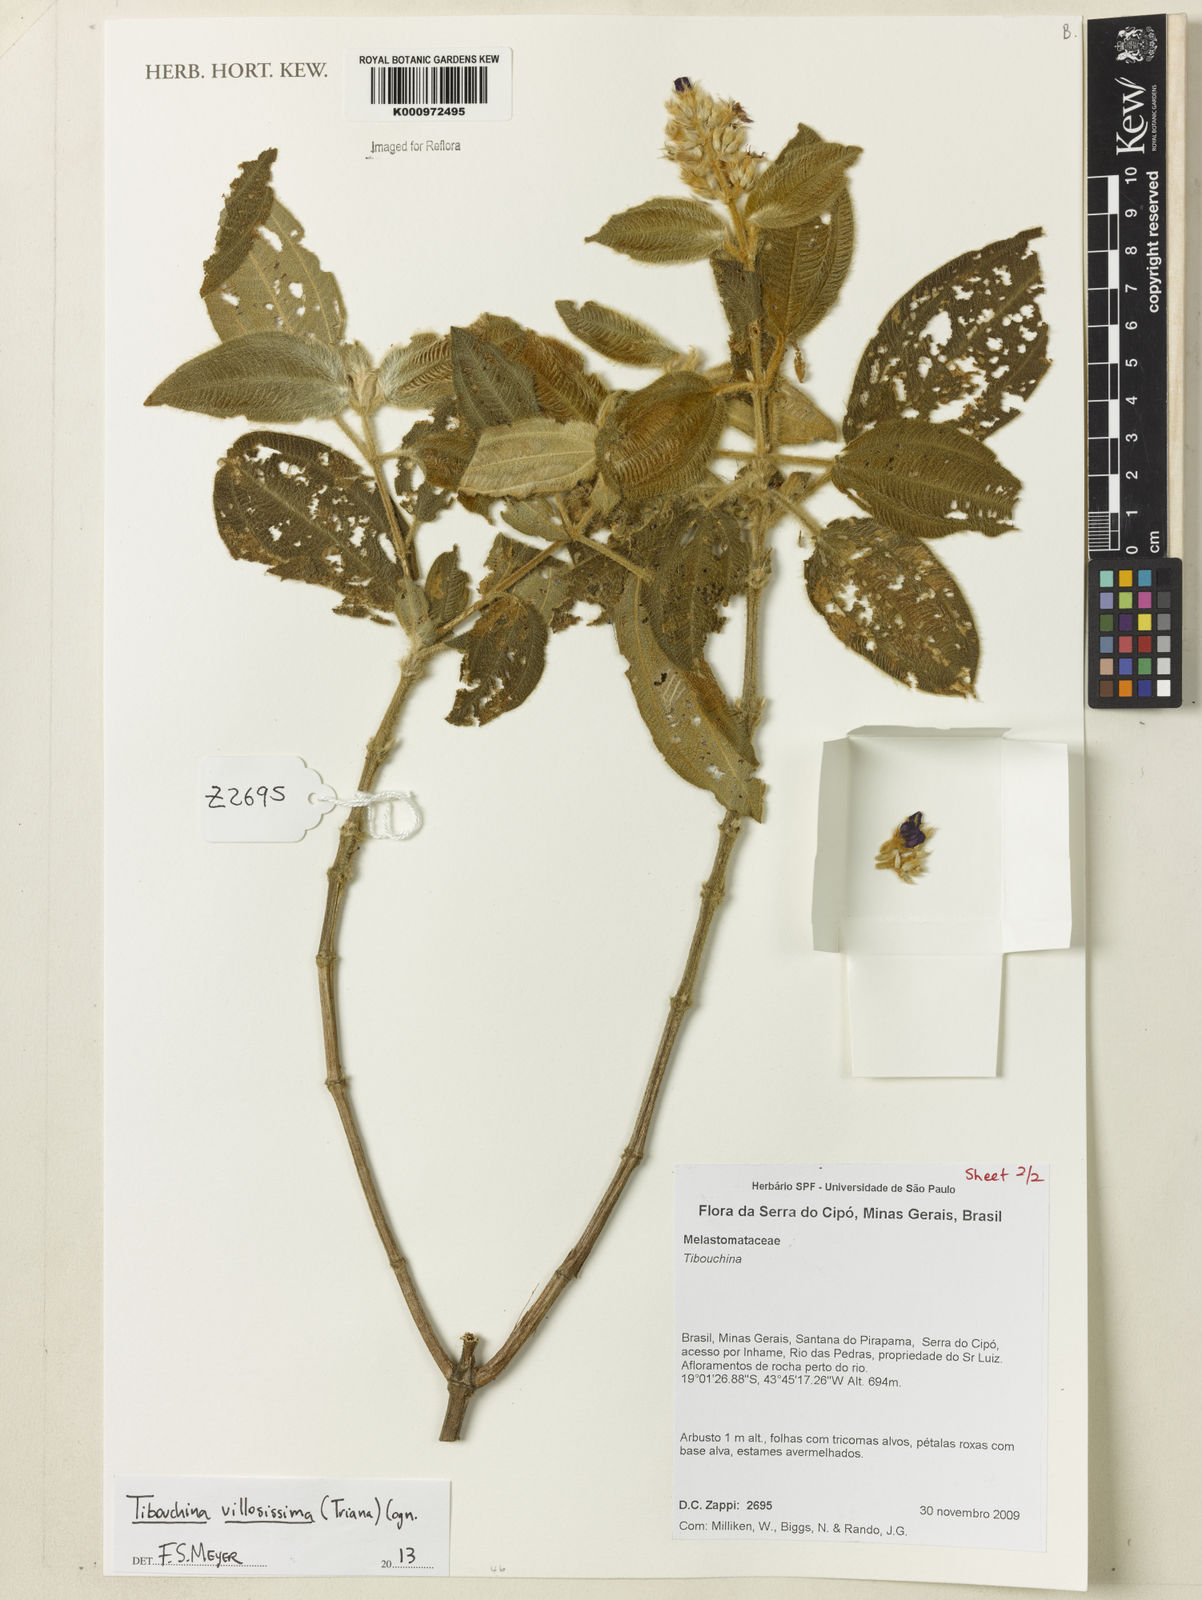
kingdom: Plantae
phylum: Tracheophyta
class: Magnoliopsida
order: Myrtales
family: Melastomataceae
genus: Pleroma
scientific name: Pleroma villosissimum
